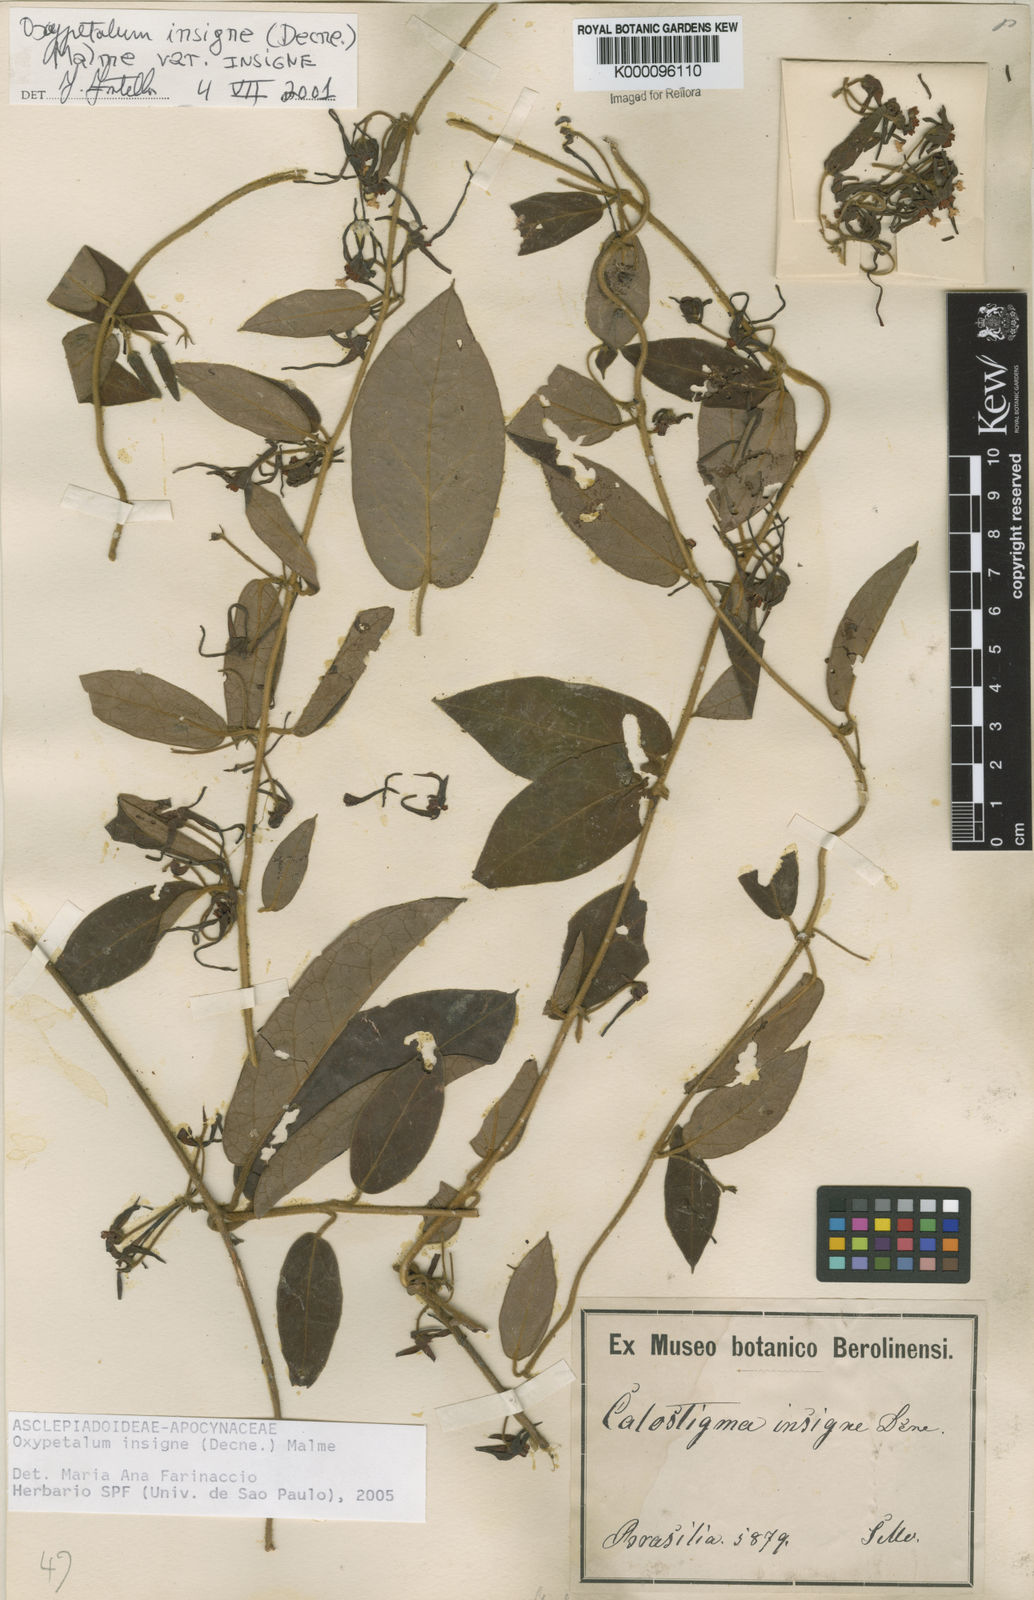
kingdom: Plantae
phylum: Tracheophyta
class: Magnoliopsida
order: Gentianales
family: Apocynaceae
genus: Oxypetalum
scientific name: Oxypetalum insigne
